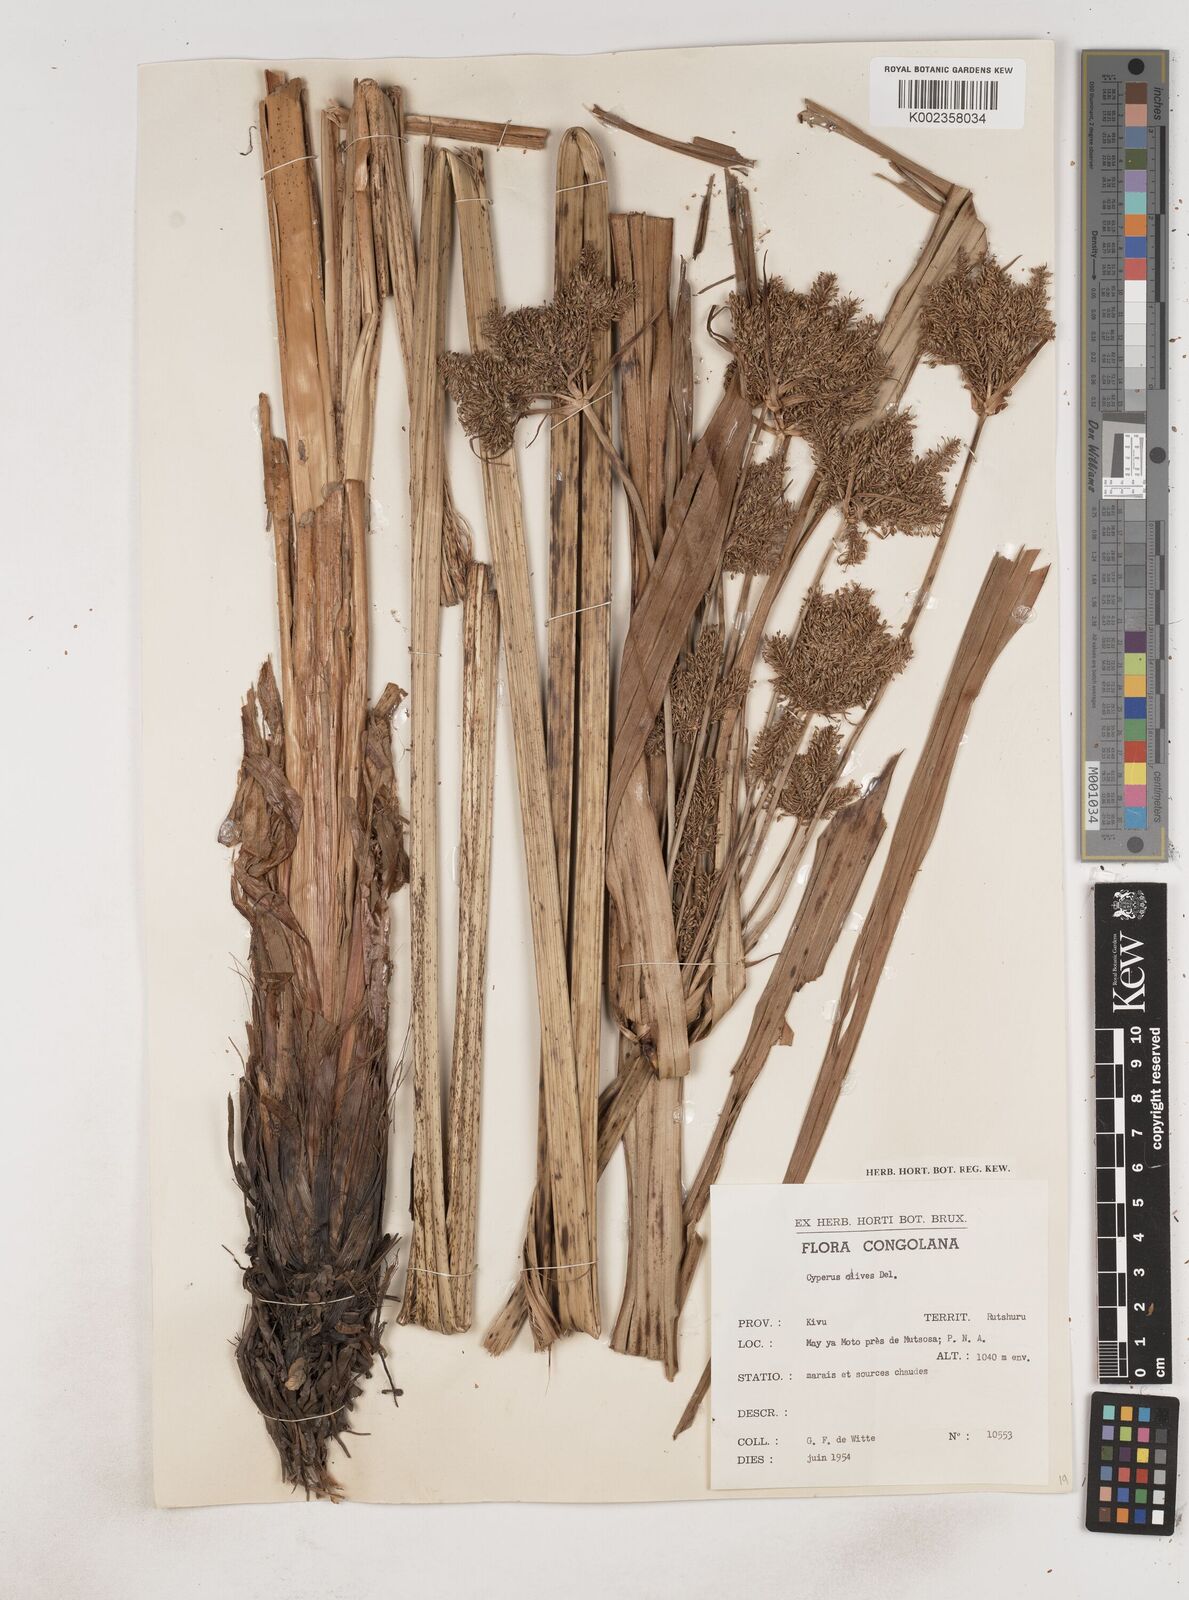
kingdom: Plantae
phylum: Tracheophyta
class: Liliopsida
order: Poales
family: Cyperaceae
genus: Cyperus
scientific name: Cyperus dives
